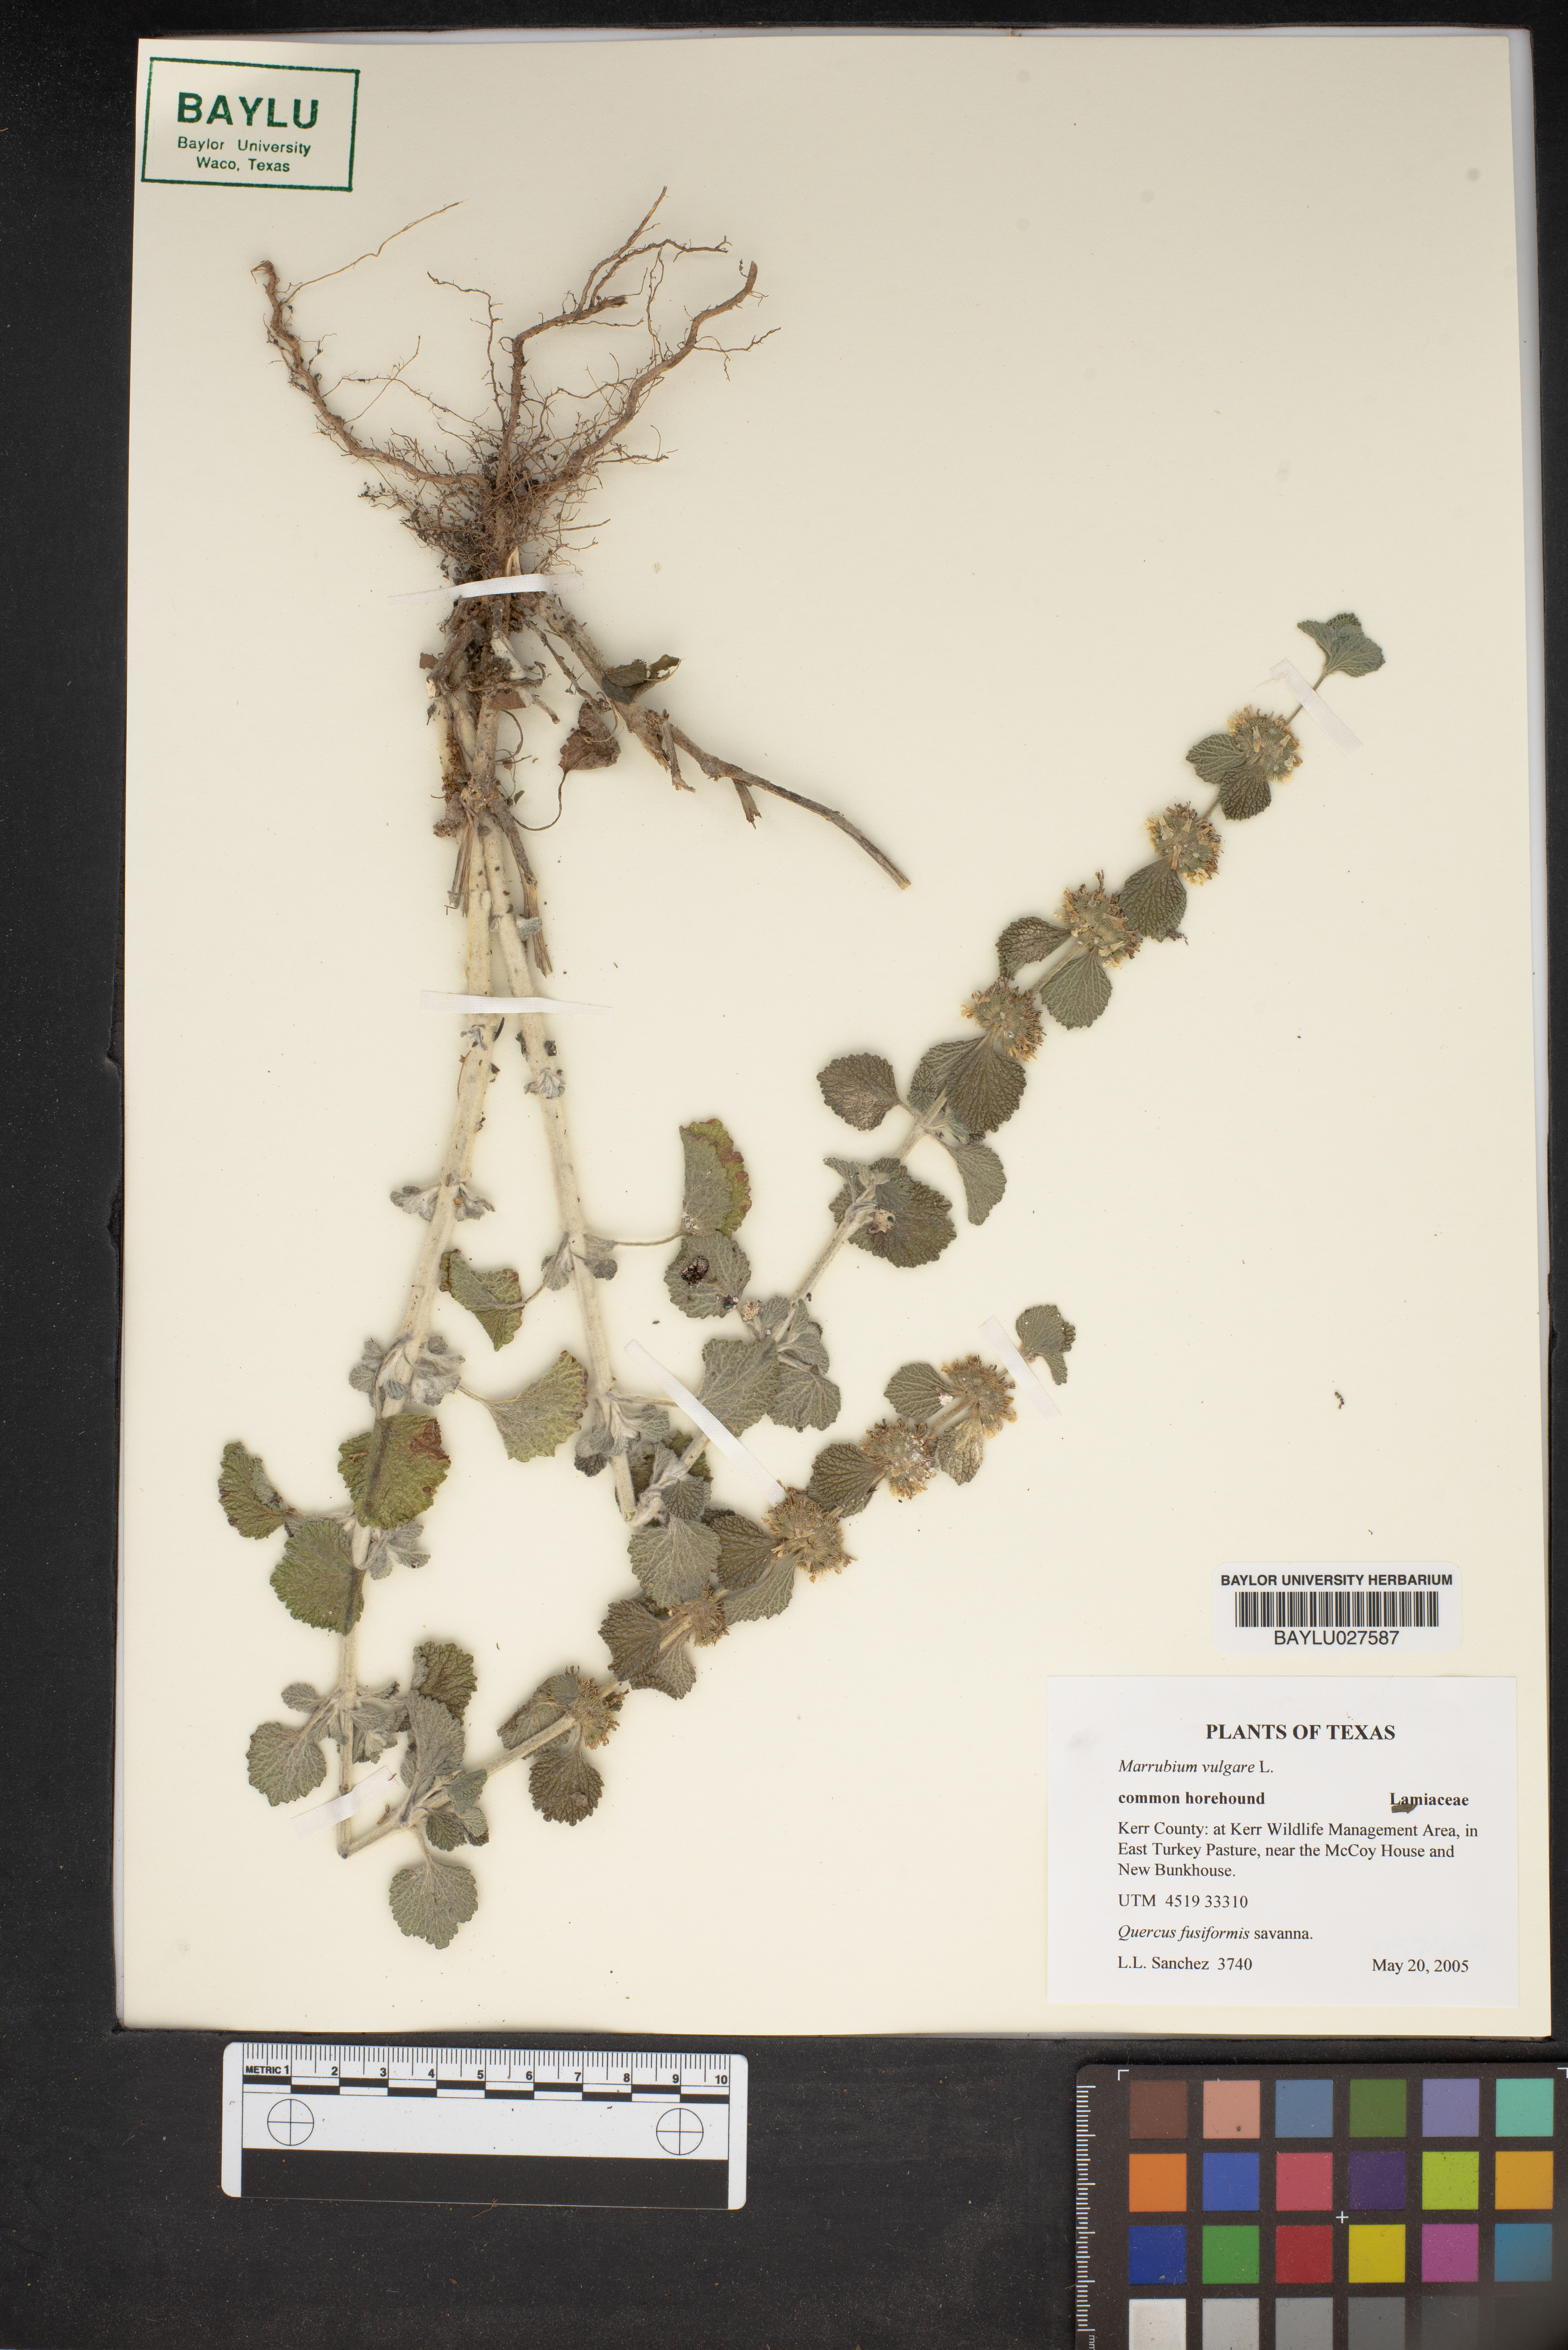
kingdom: Plantae
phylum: Tracheophyta
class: Magnoliopsida
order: Lamiales
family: Lamiaceae
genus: Marrubium
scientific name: Marrubium vulgare
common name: Horehound
